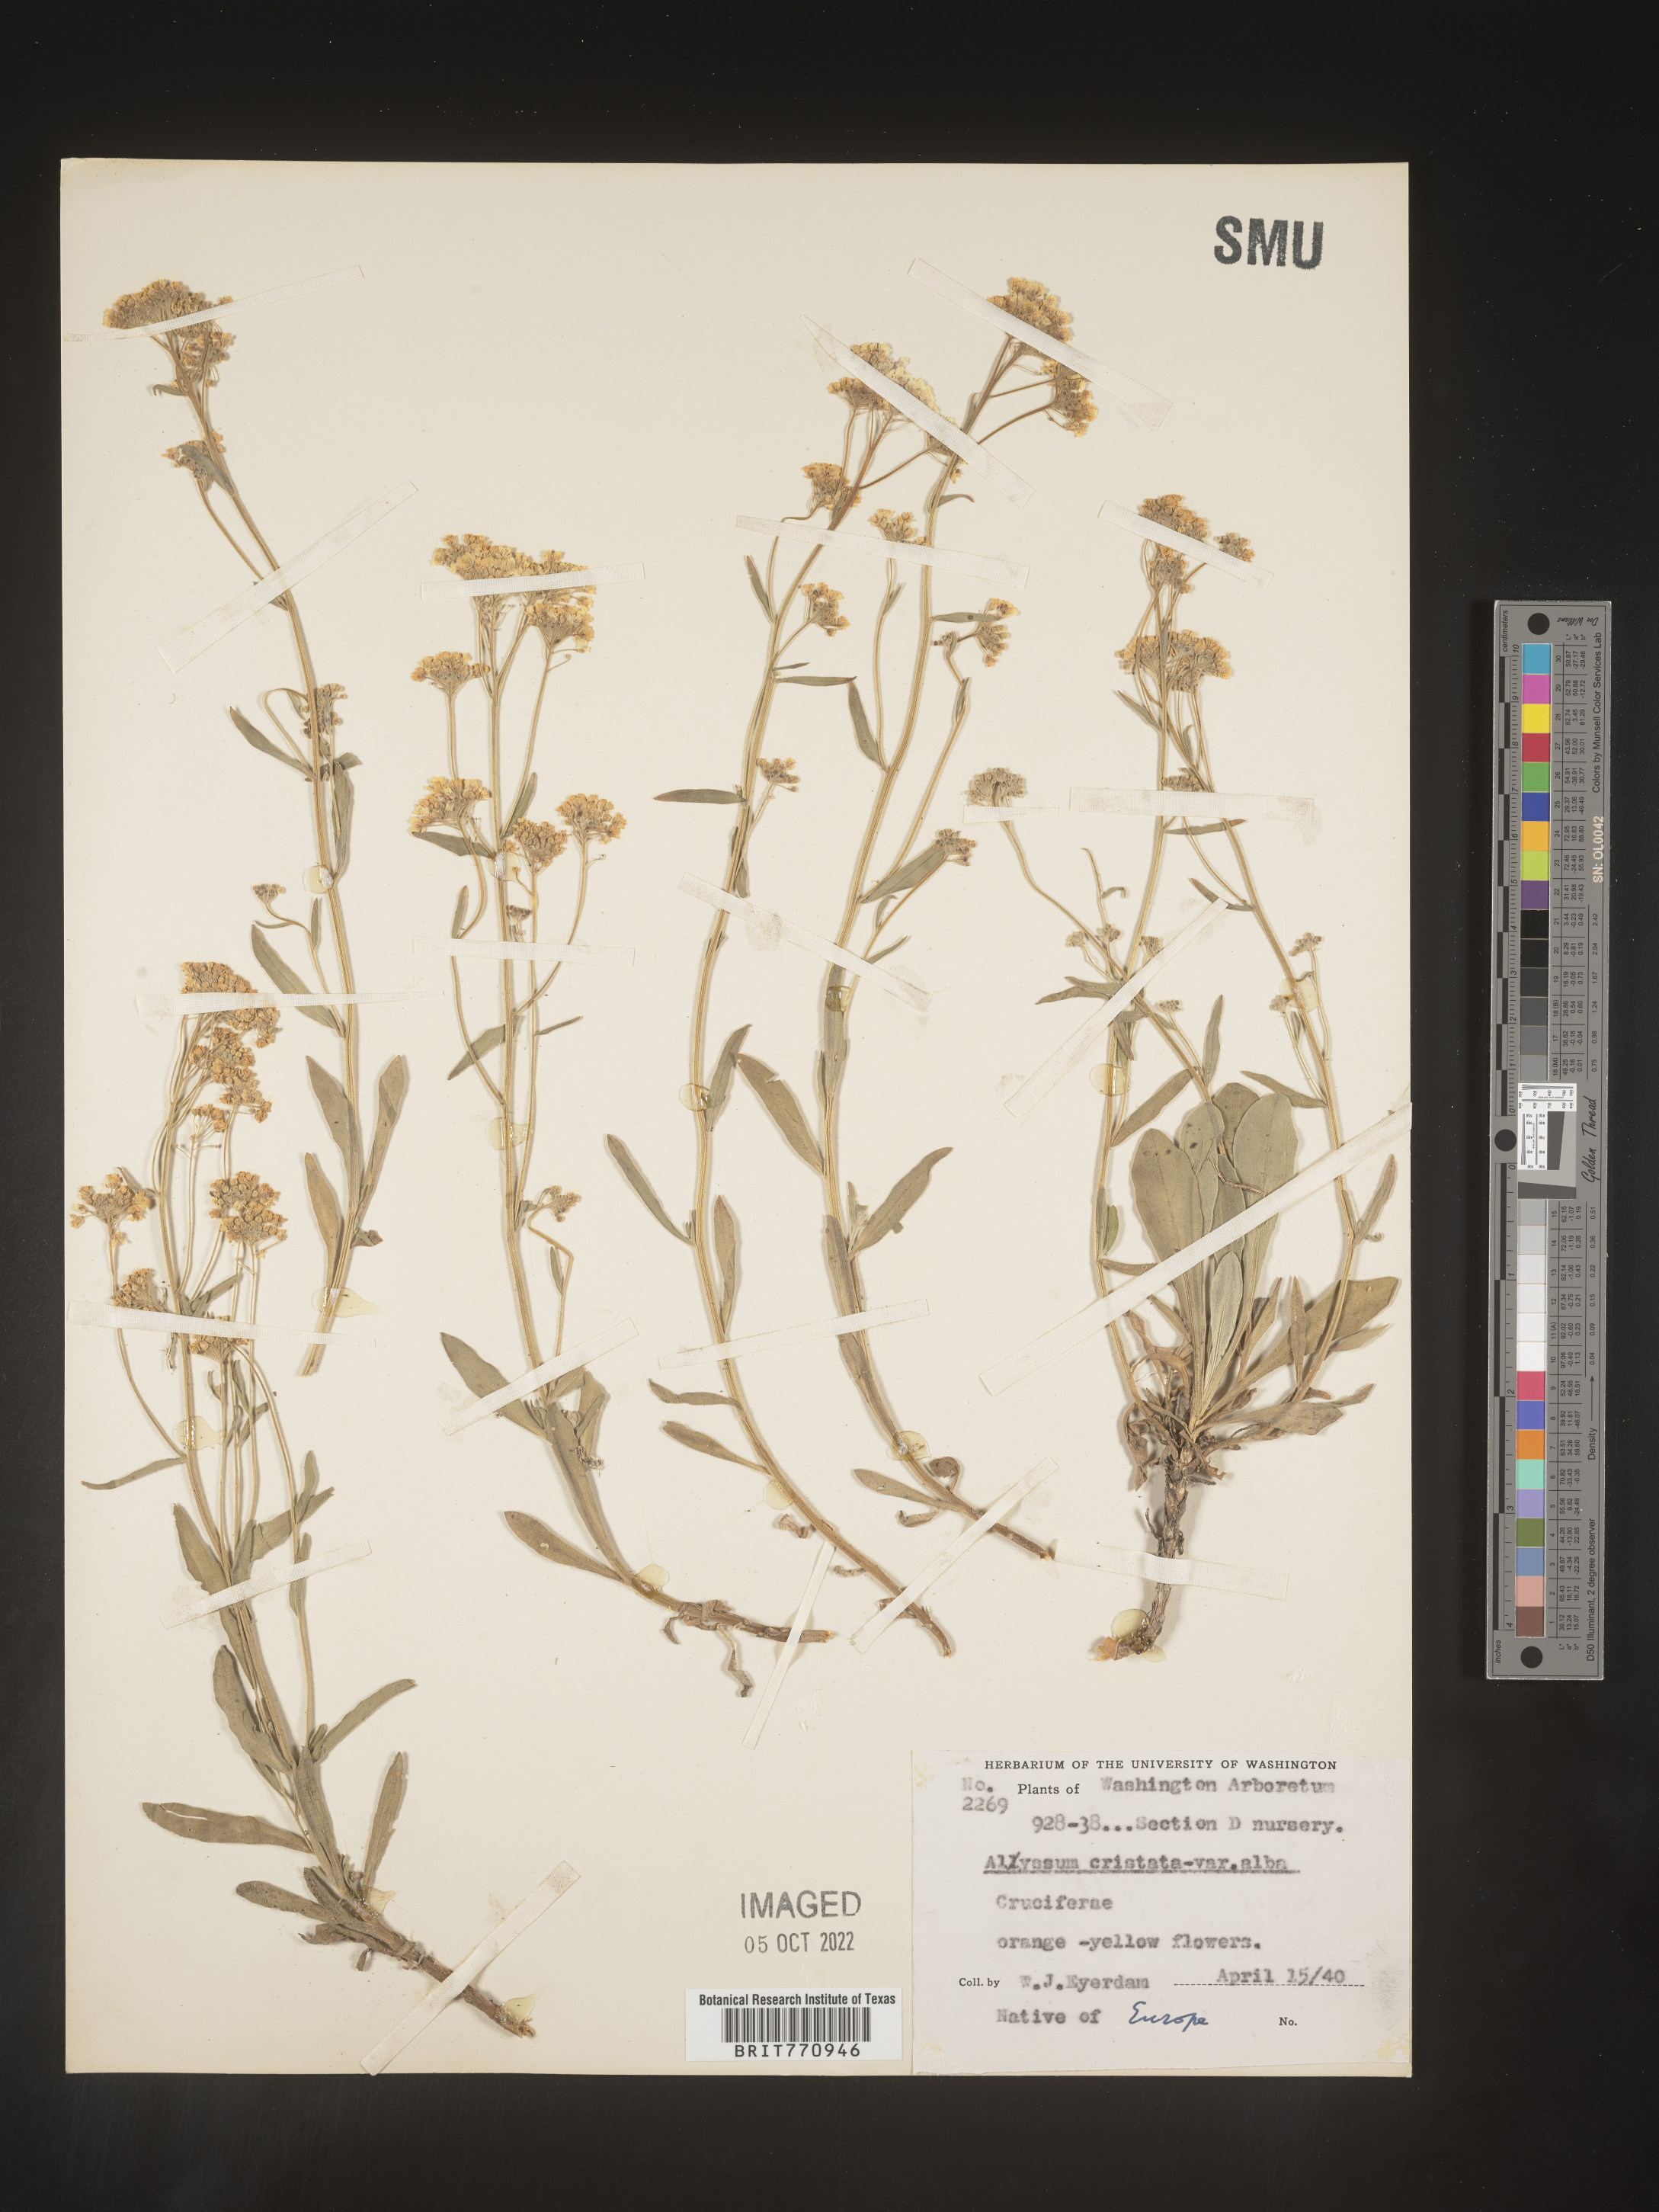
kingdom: Plantae
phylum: Tracheophyta
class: Magnoliopsida
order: Brassicales
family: Brassicaceae
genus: Alyssum
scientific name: Alyssum
